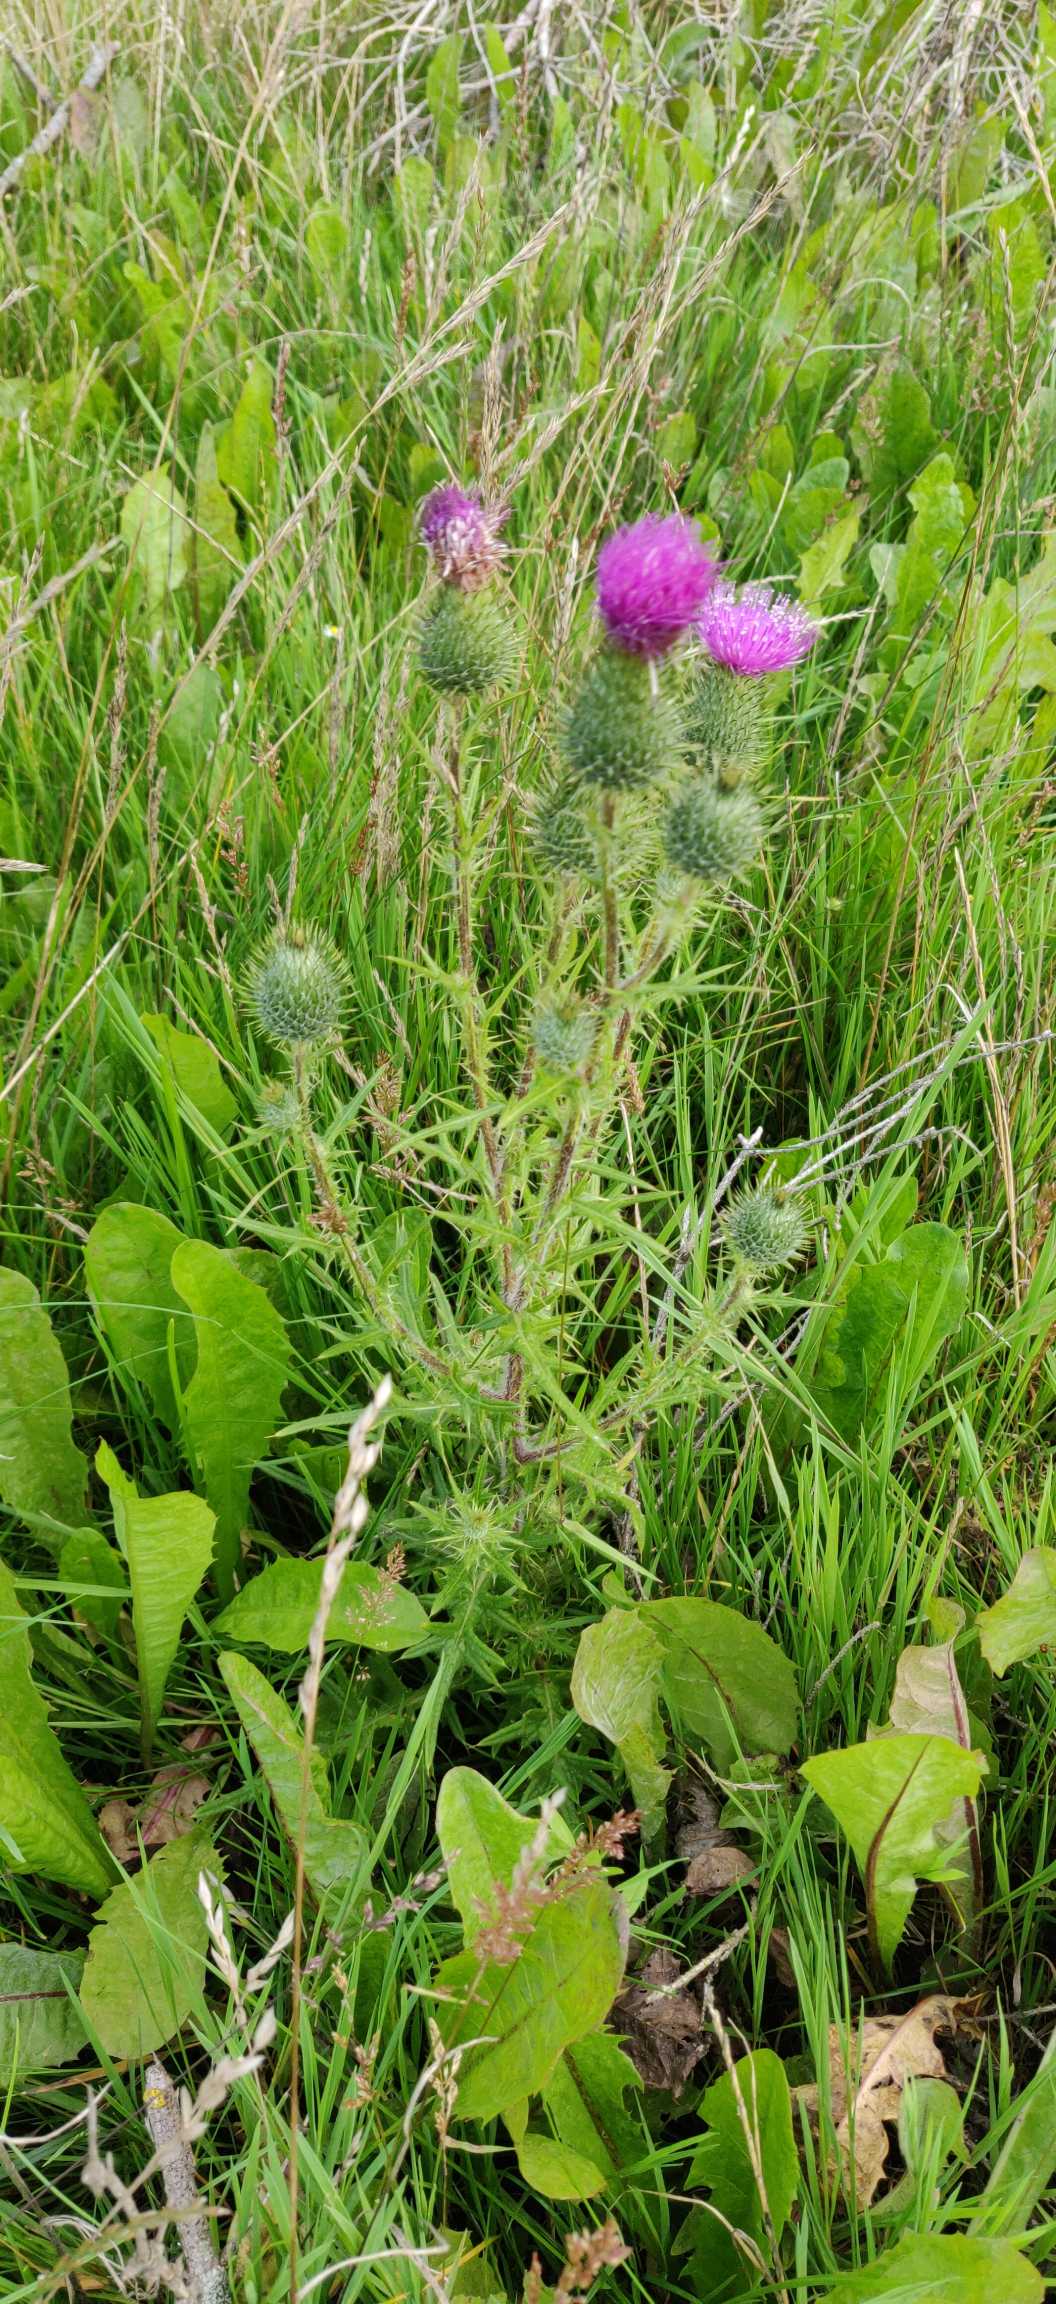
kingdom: Plantae
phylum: Tracheophyta
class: Magnoliopsida
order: Asterales
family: Asteraceae
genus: Cirsium
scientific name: Cirsium vulgare
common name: Horse-tidsel
